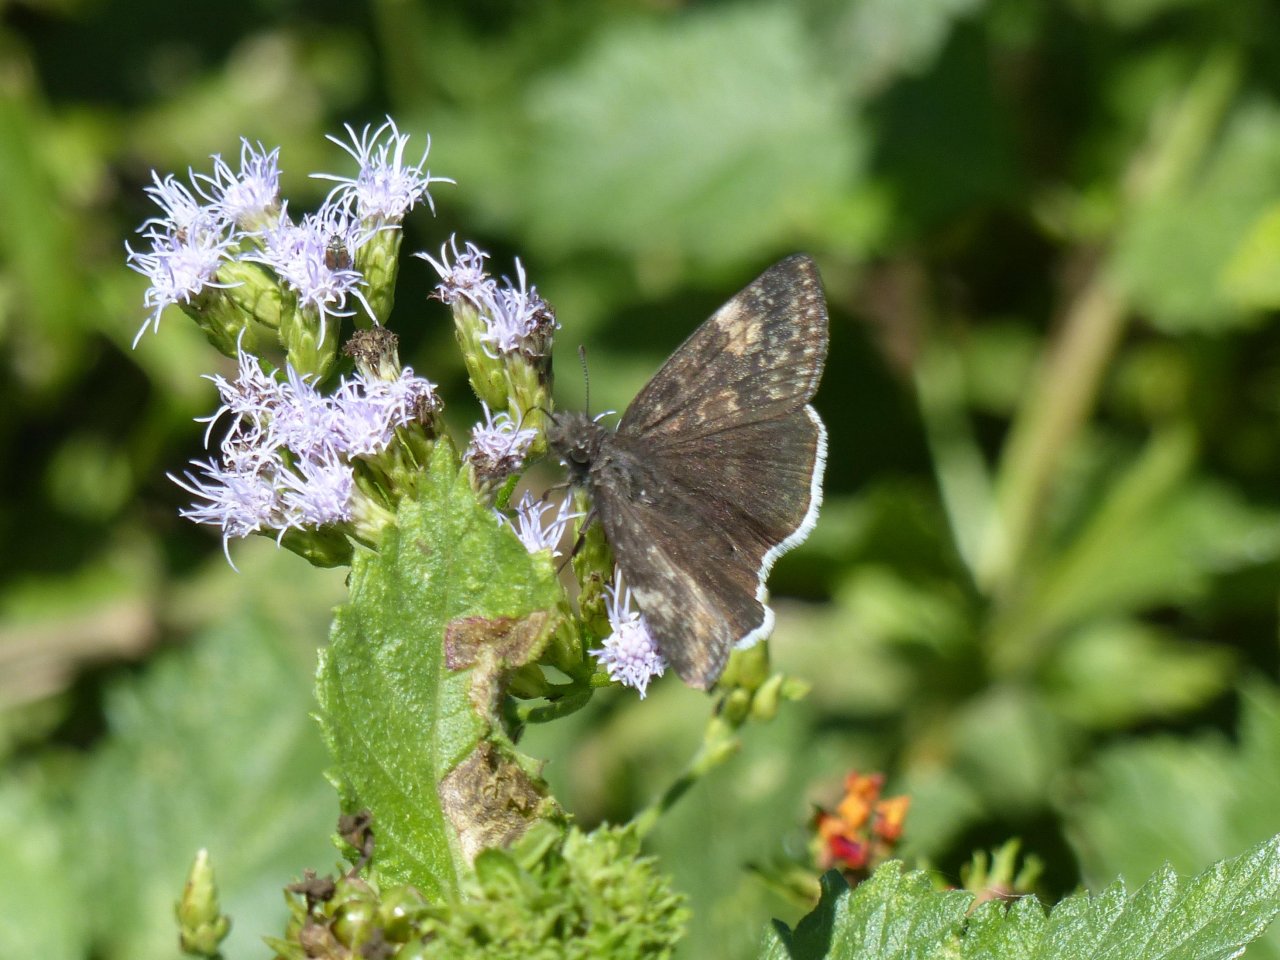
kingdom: Animalia
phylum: Arthropoda
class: Insecta
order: Lepidoptera
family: Hesperiidae
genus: Erynnis
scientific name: Erynnis tristis
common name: Mournful Duskywing
